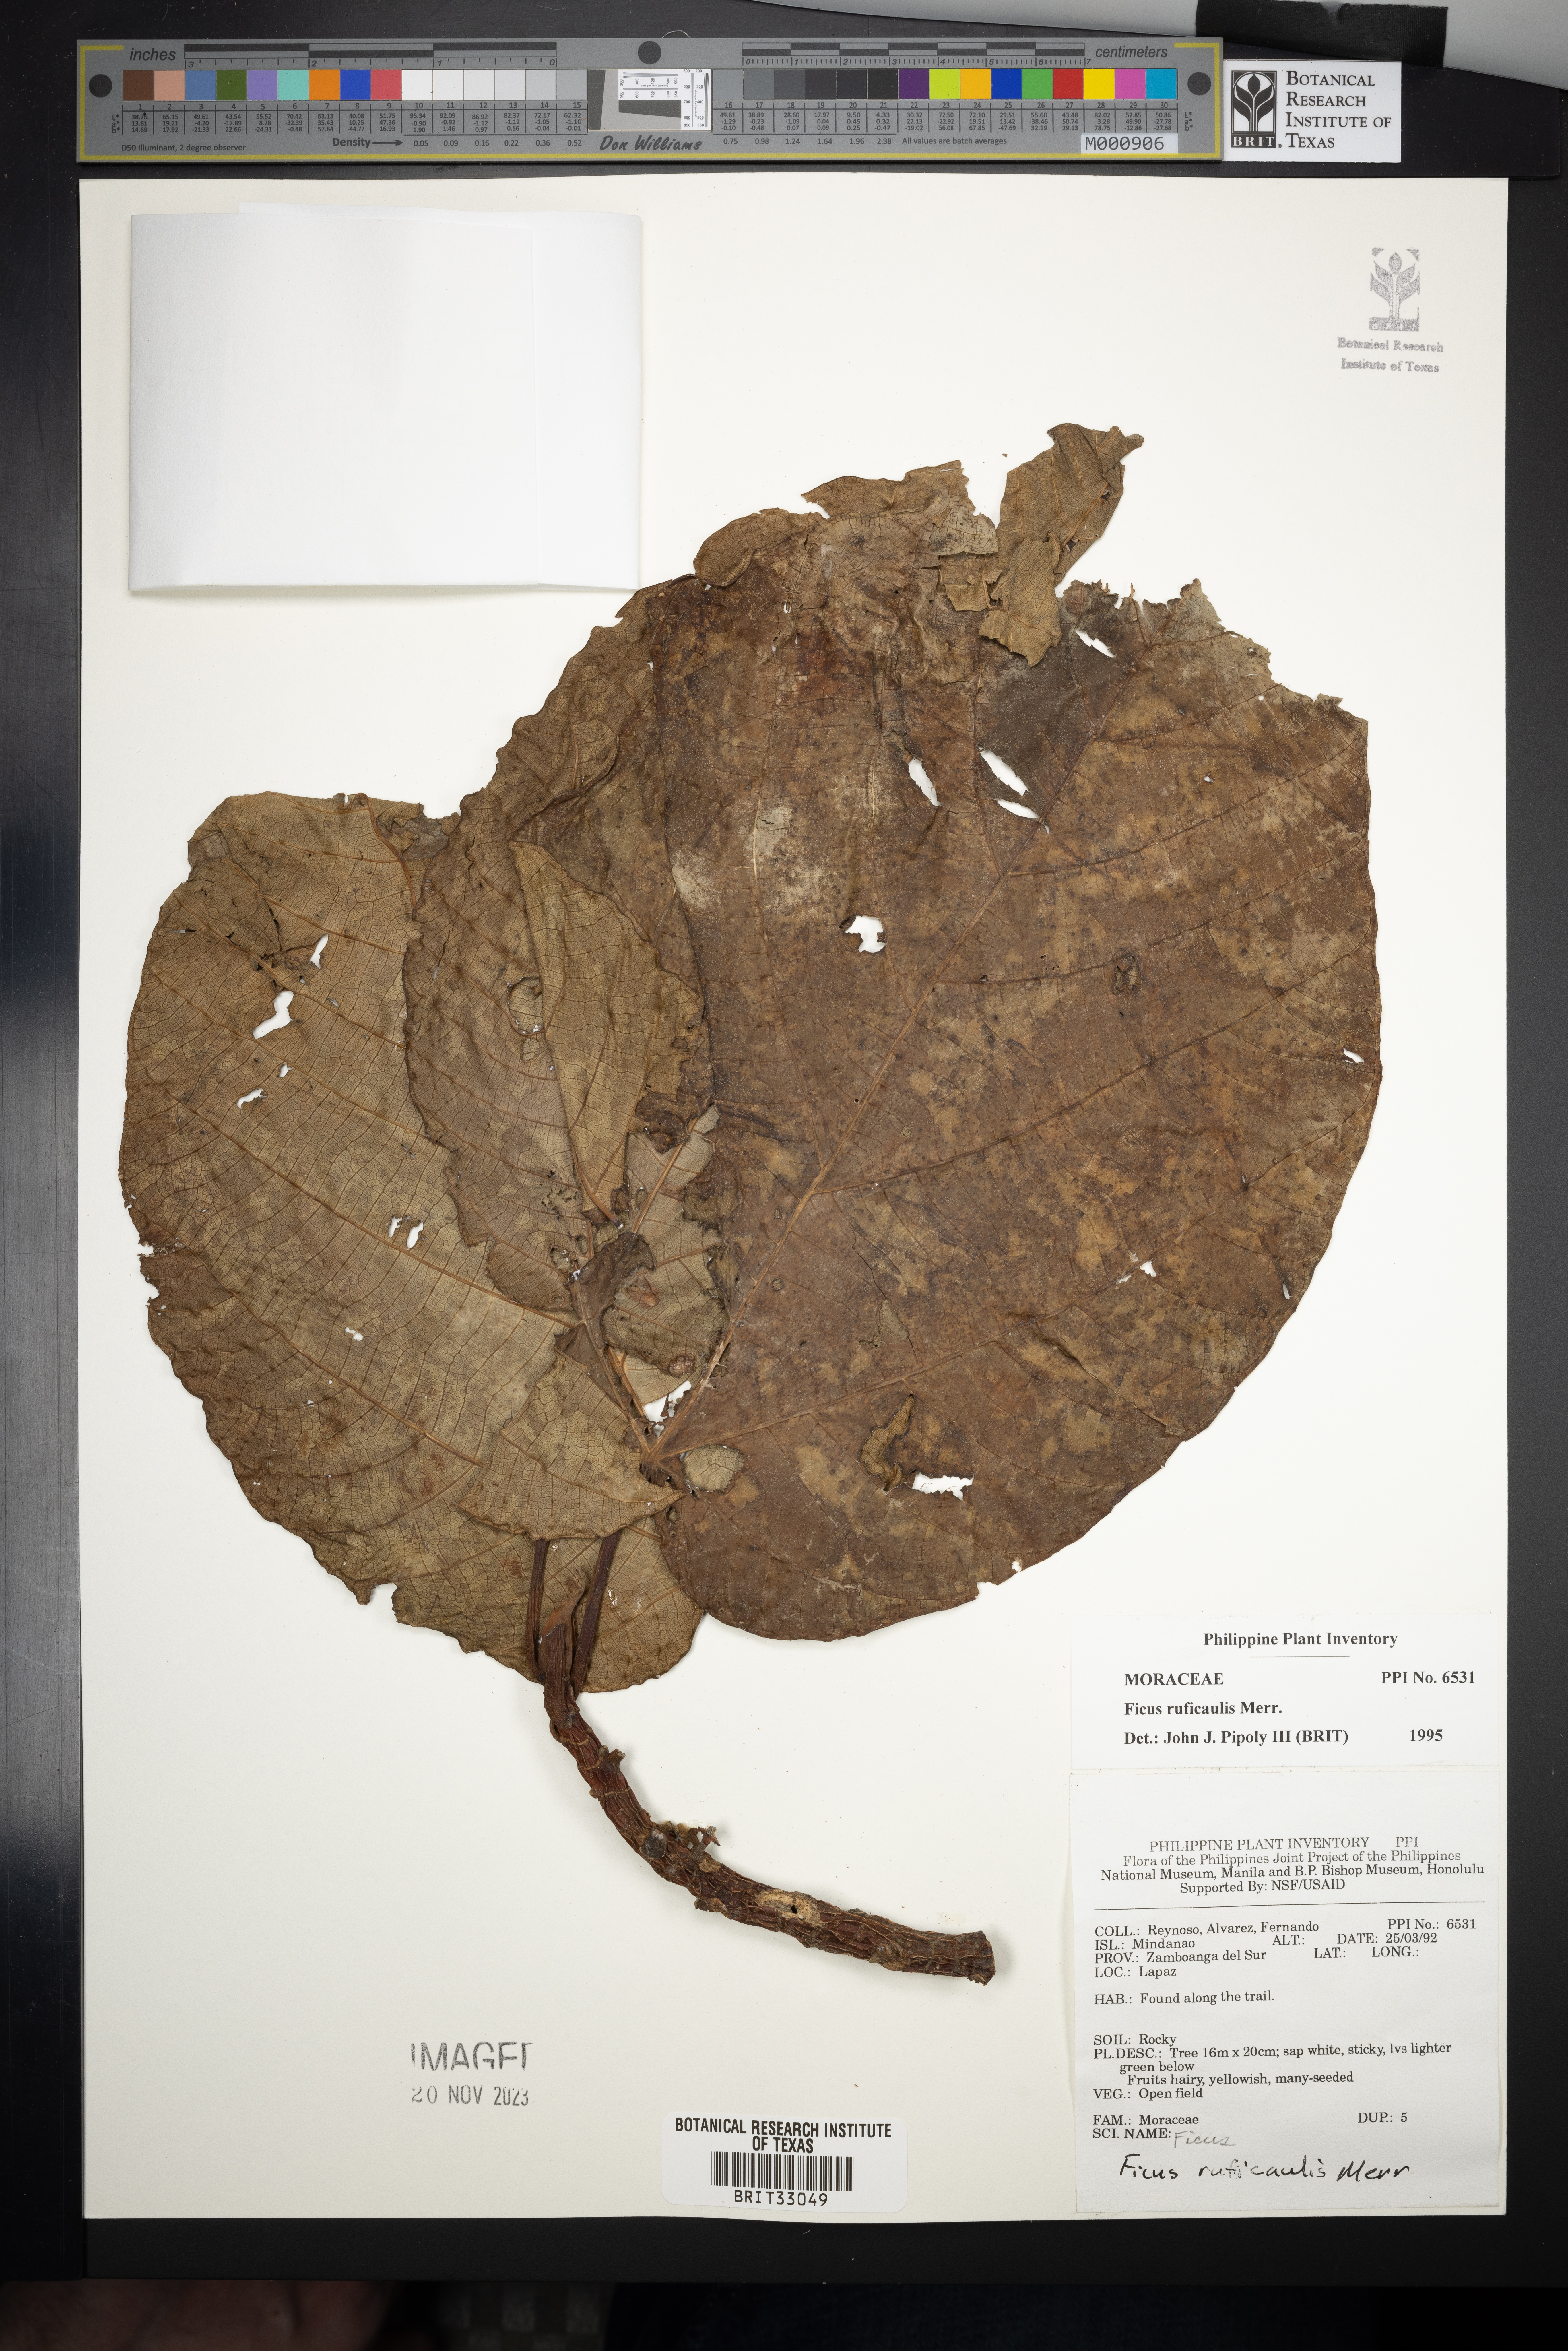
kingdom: Plantae
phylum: Tracheophyta
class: Magnoliopsida
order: Rosales
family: Moraceae
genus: Ficus
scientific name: Ficus ruficaulis
